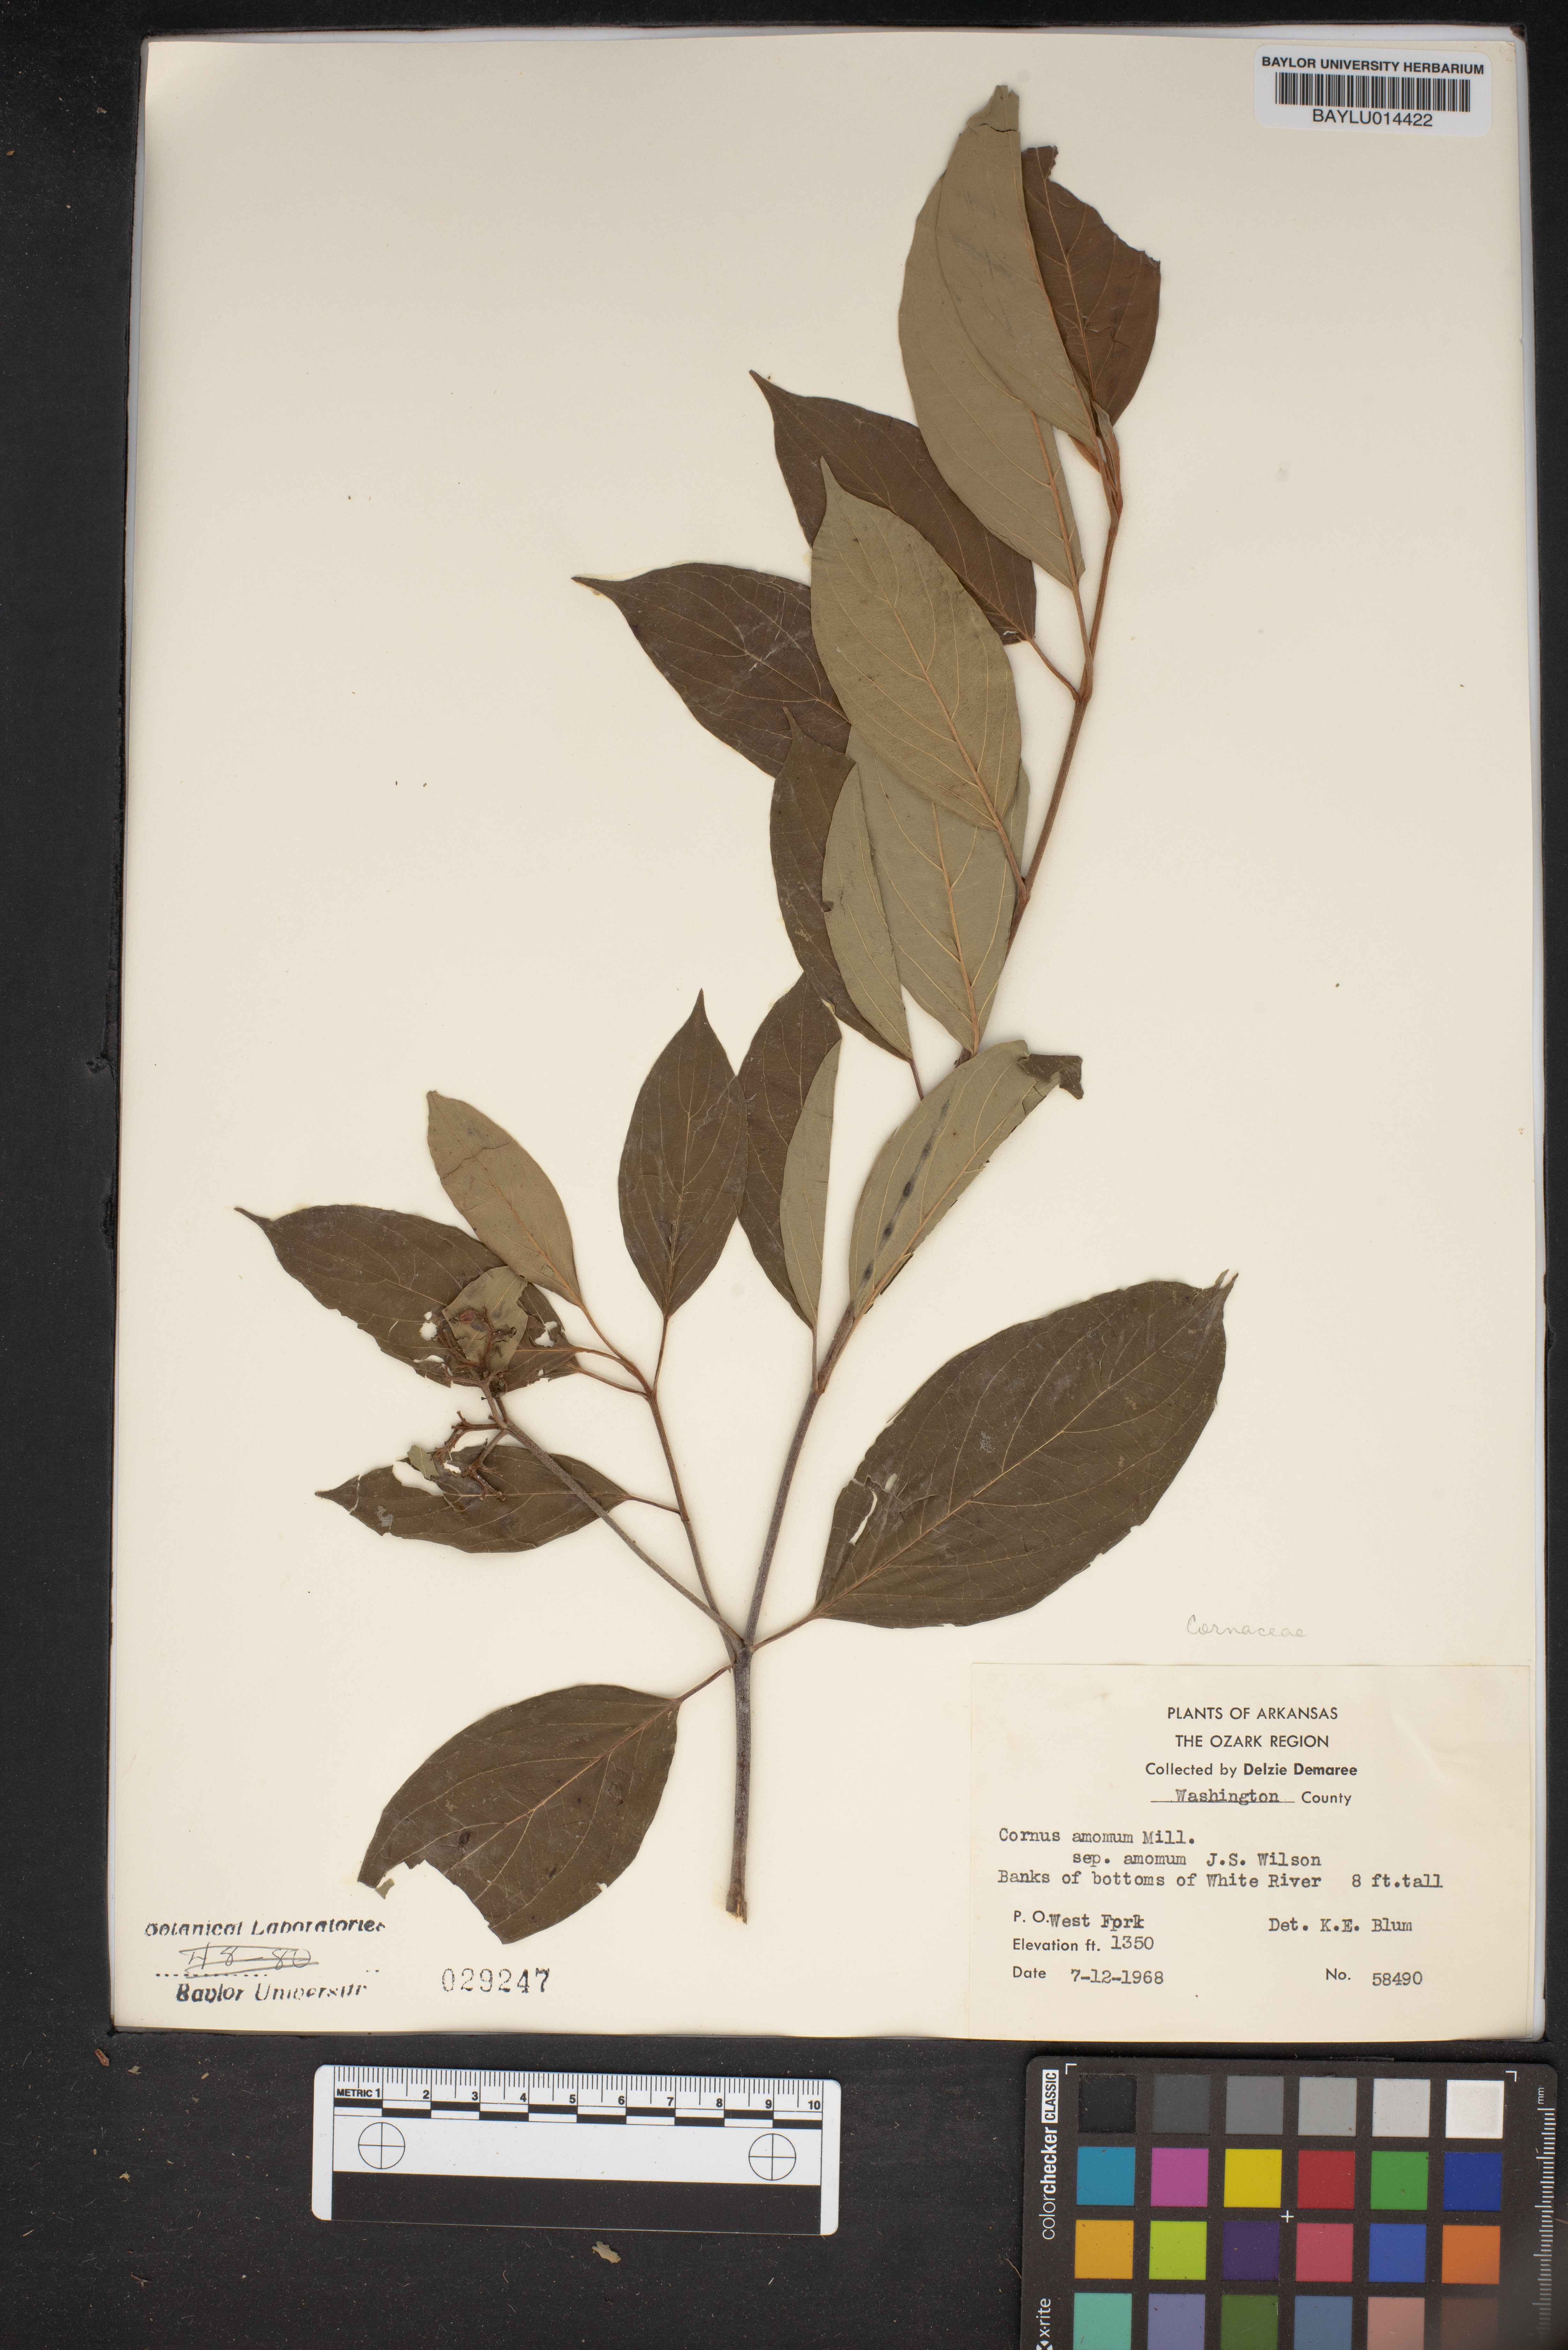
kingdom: Plantae
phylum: Tracheophyta
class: Magnoliopsida
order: Cornales
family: Cornaceae
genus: Cornus
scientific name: Cornus amomum
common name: Silky dogwood
